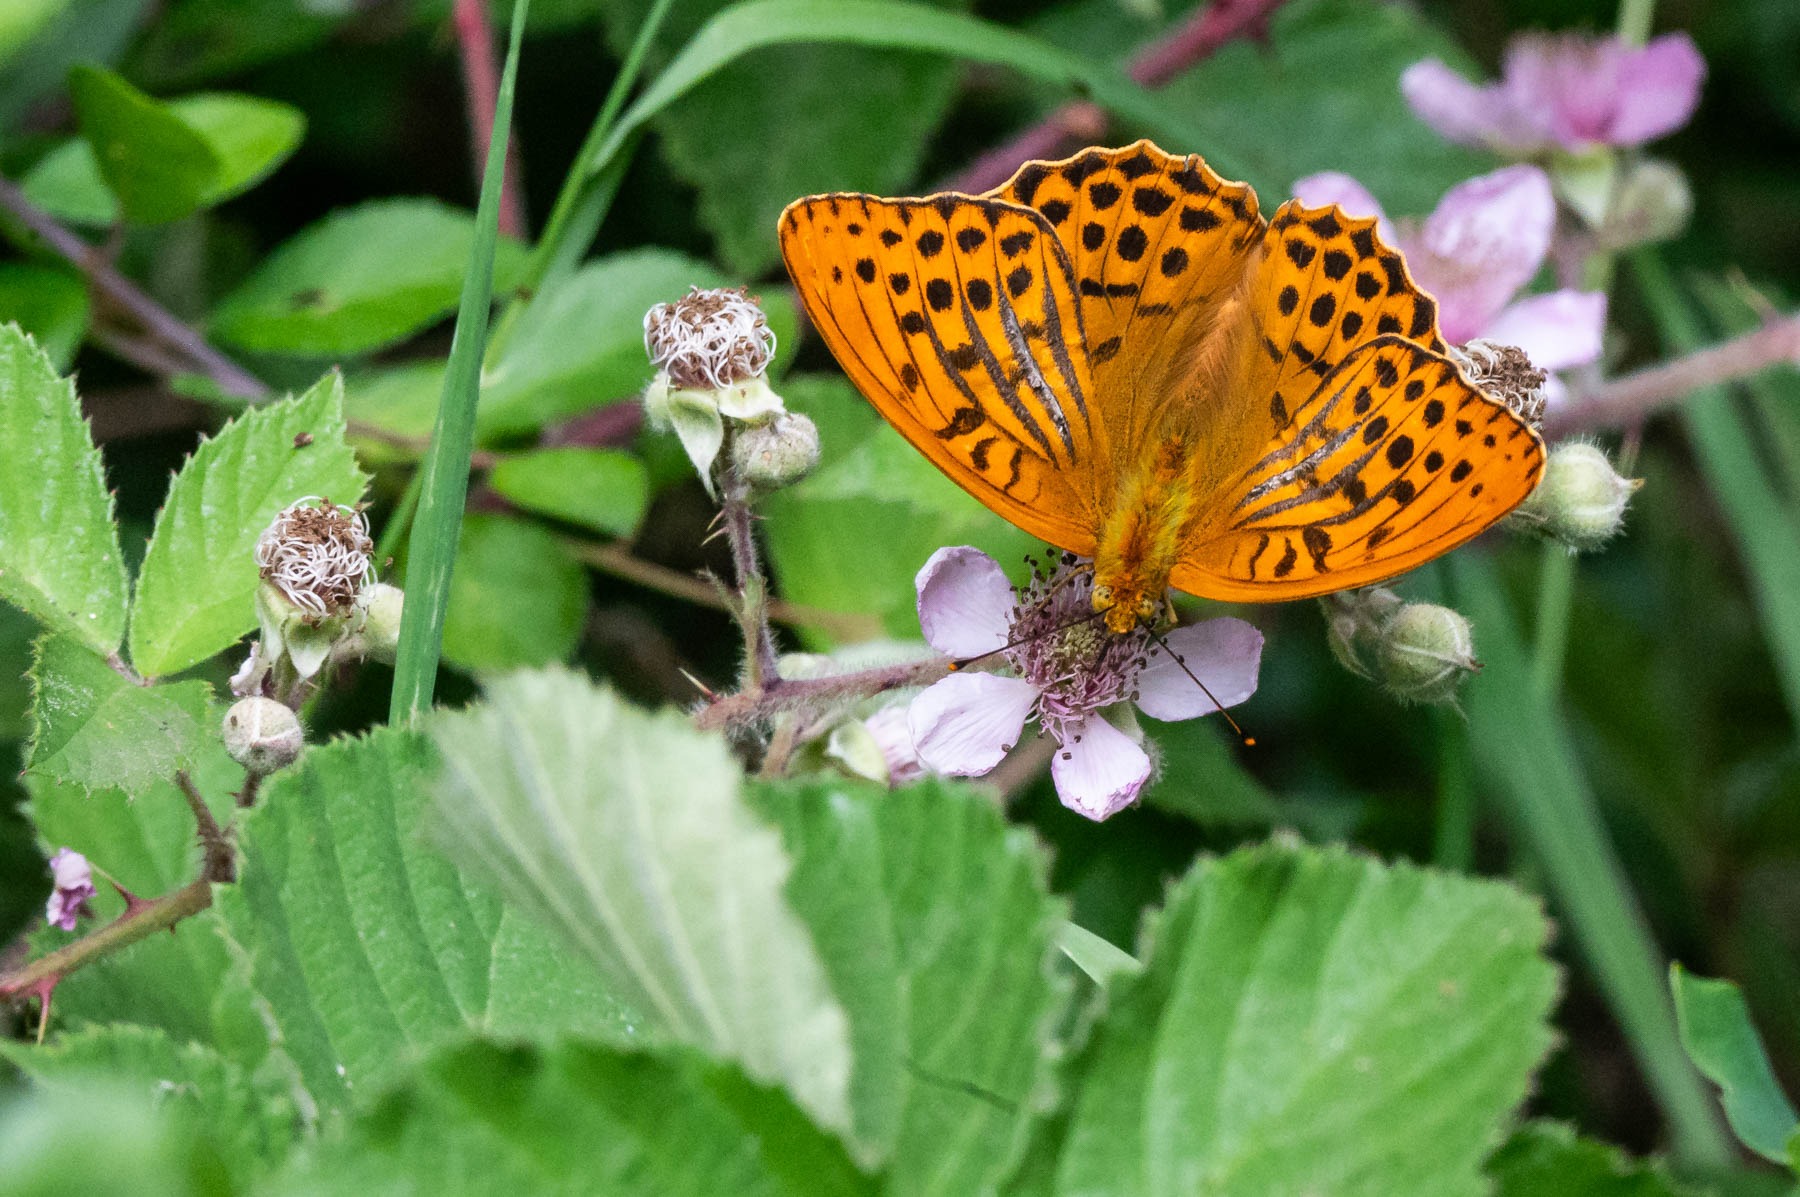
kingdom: Animalia
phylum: Arthropoda
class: Insecta
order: Lepidoptera
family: Nymphalidae
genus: Argynnis
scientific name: Argynnis paphia
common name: Kejserkåbe
